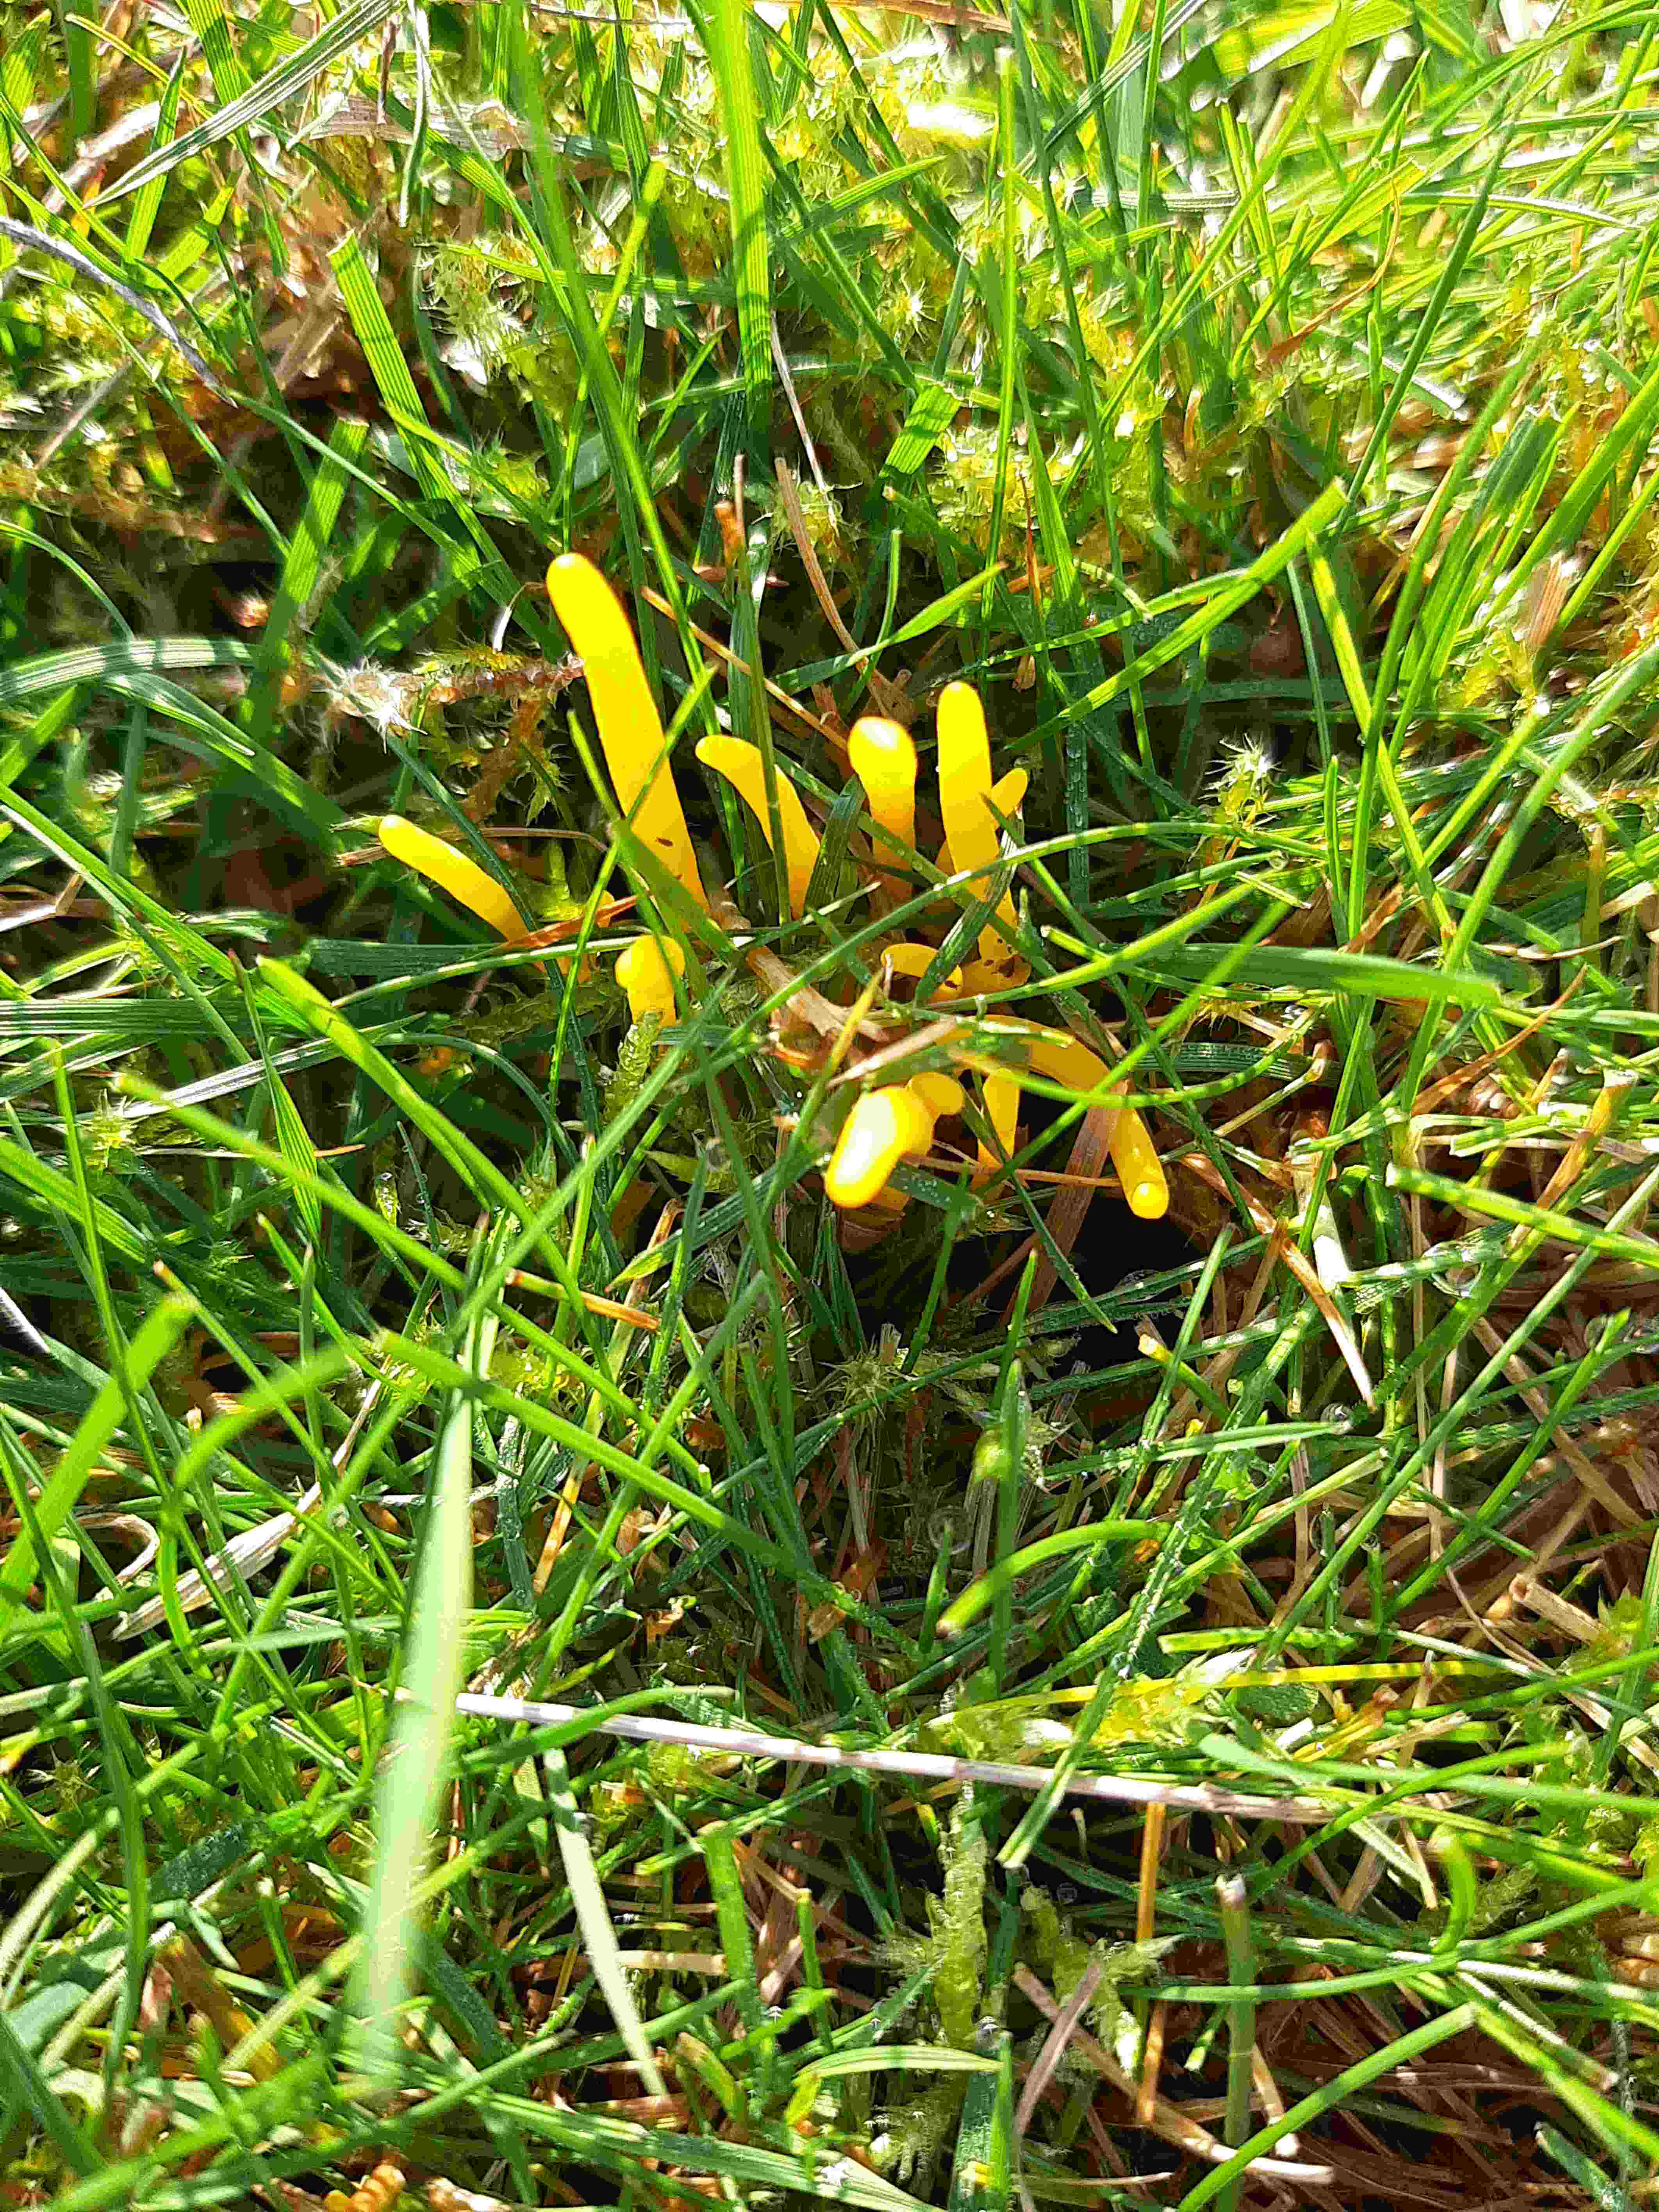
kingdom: Fungi
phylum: Basidiomycota
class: Agaricomycetes
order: Agaricales
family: Clavariaceae
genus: Clavulinopsis
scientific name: Clavulinopsis
